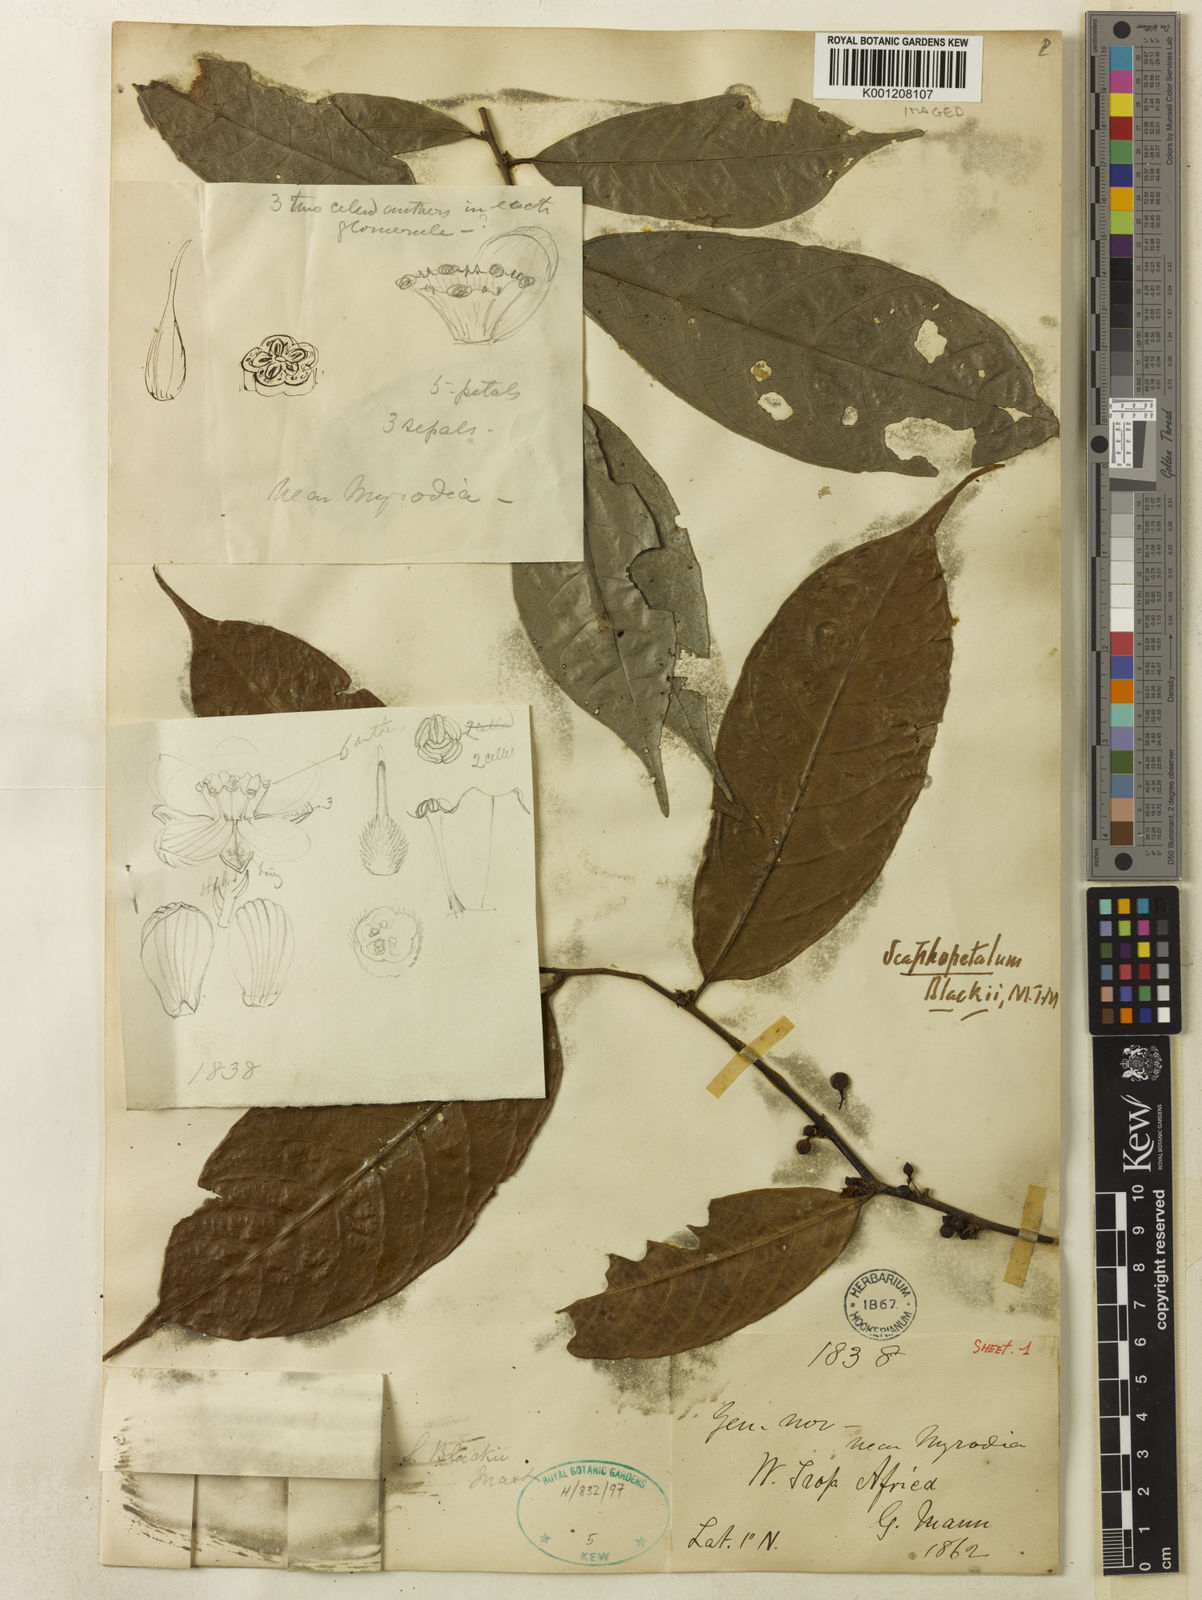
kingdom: Plantae
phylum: Tracheophyta
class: Magnoliopsida
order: Malvales
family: Malvaceae
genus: Scaphopetalum
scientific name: Scaphopetalum blackii
